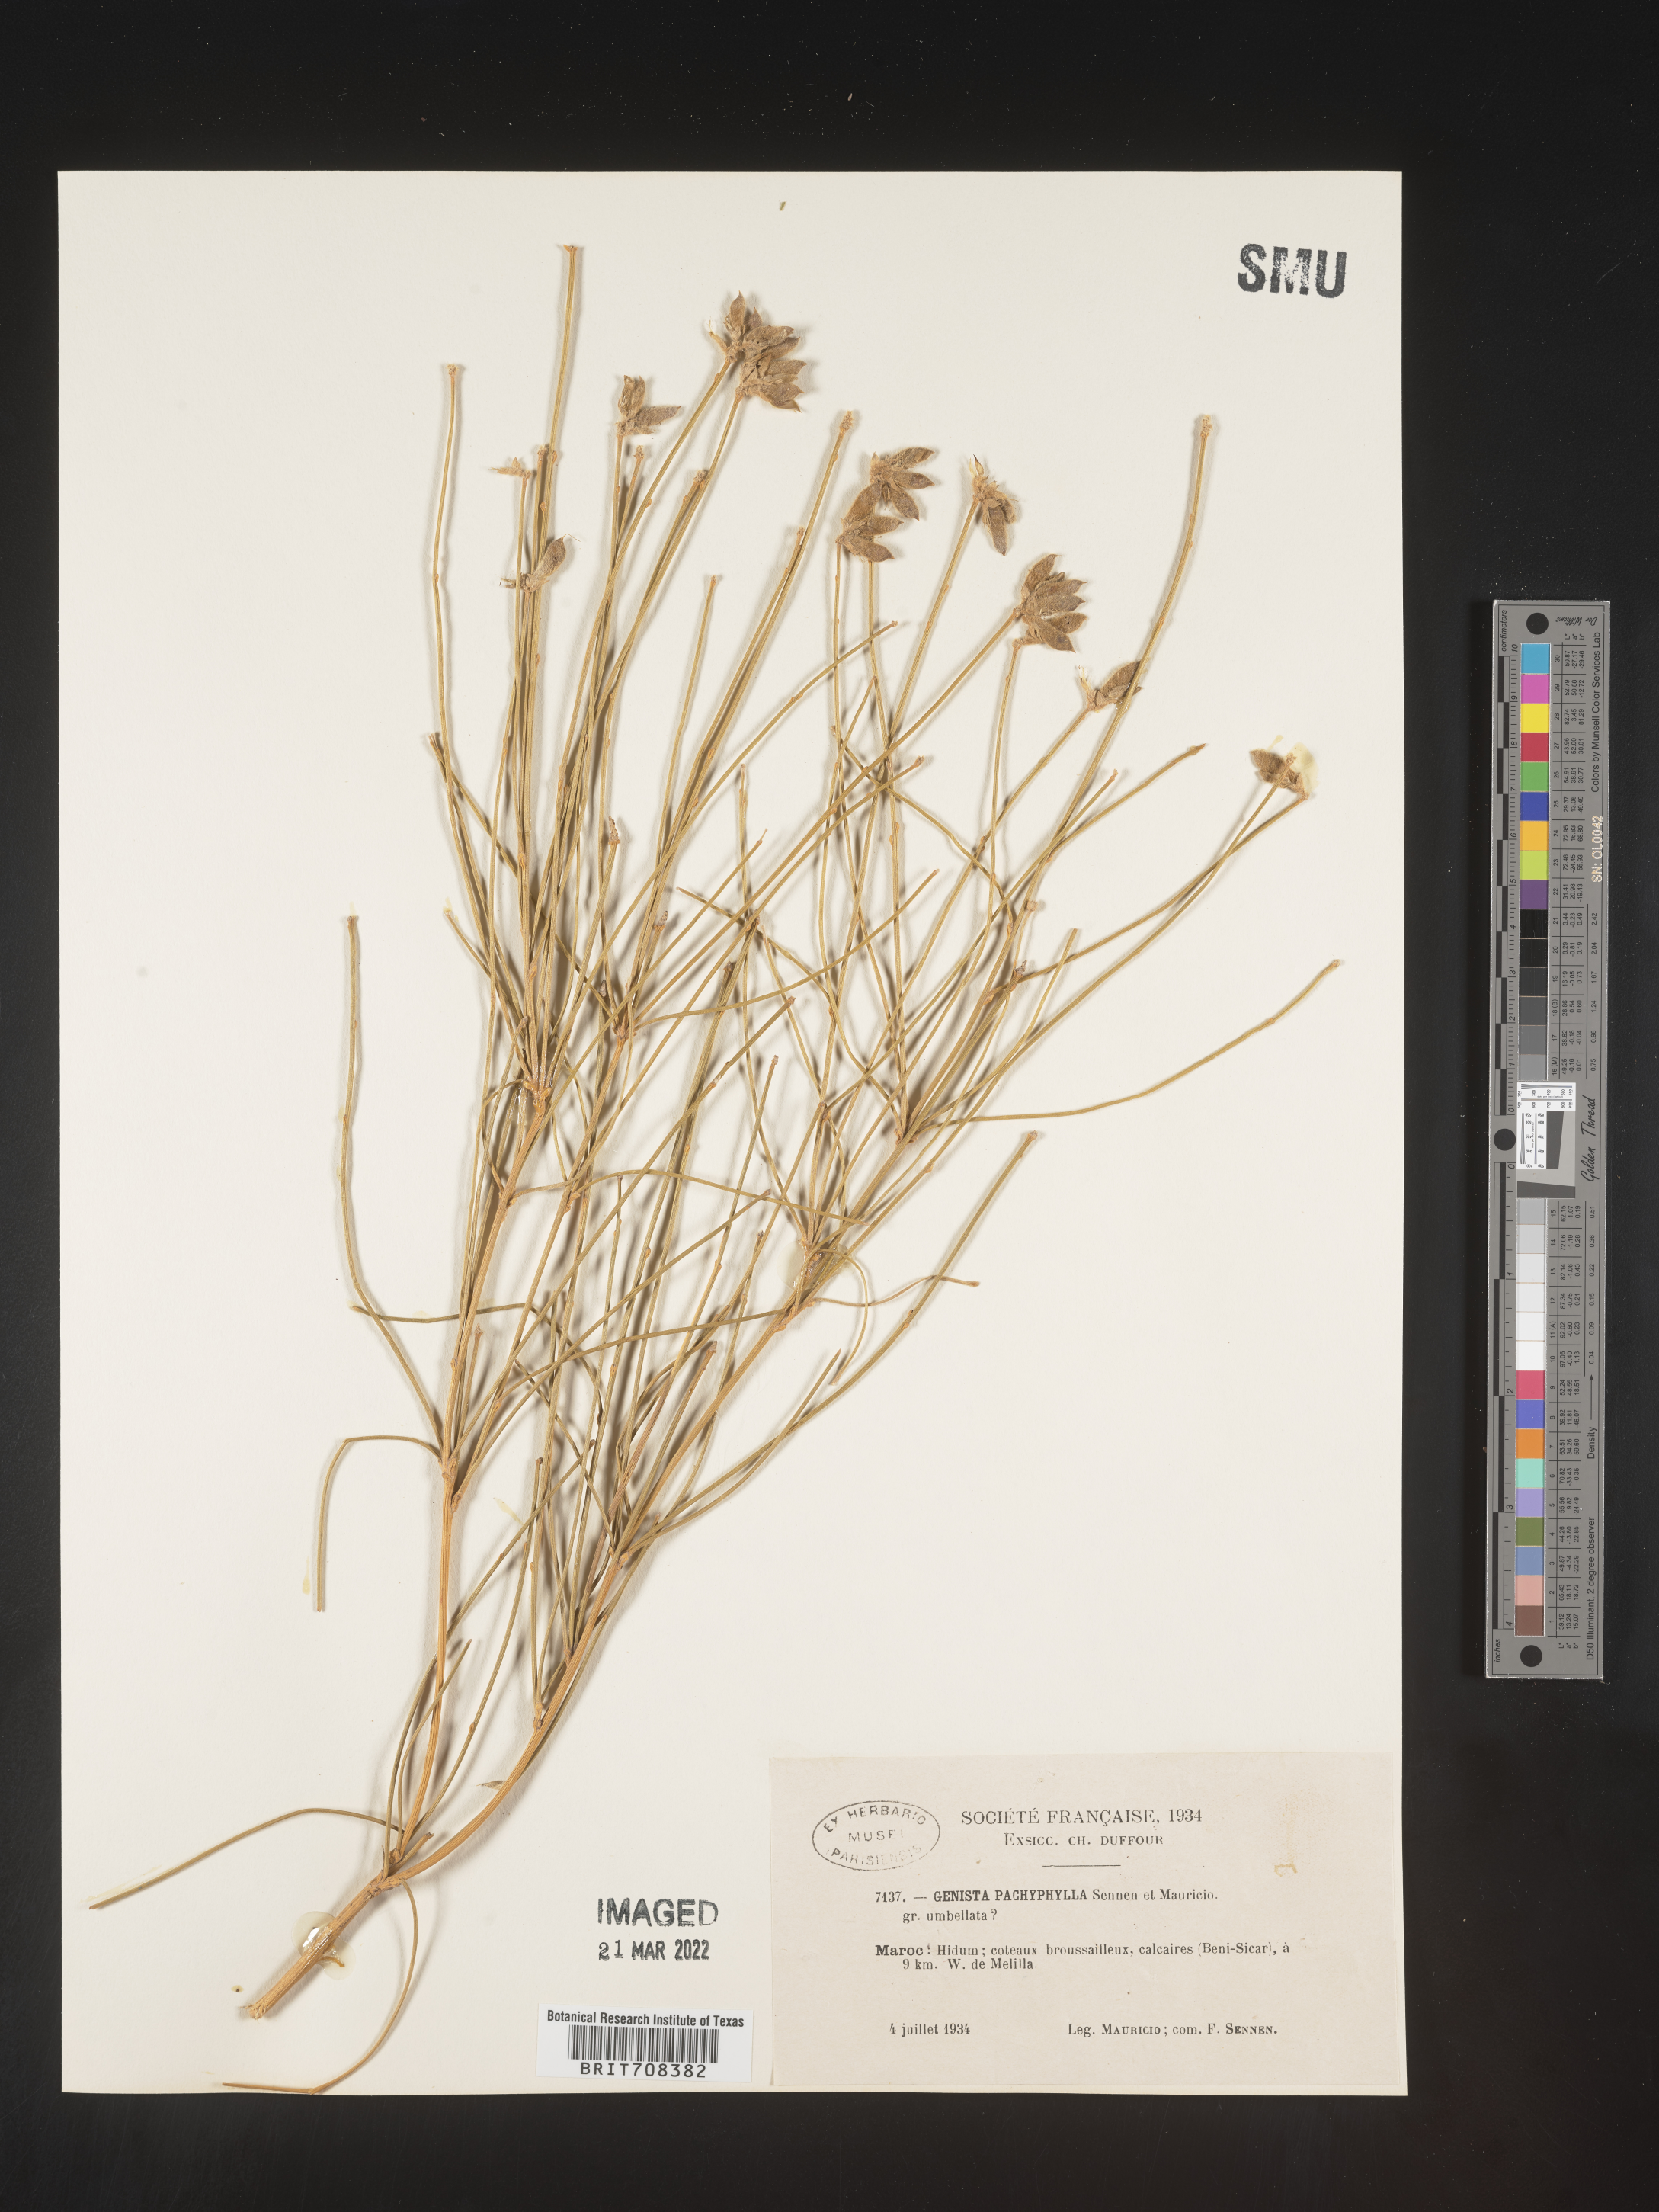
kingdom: Plantae
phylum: Tracheophyta
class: Magnoliopsida
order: Fabales
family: Fabaceae
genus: Genista
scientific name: Genista
